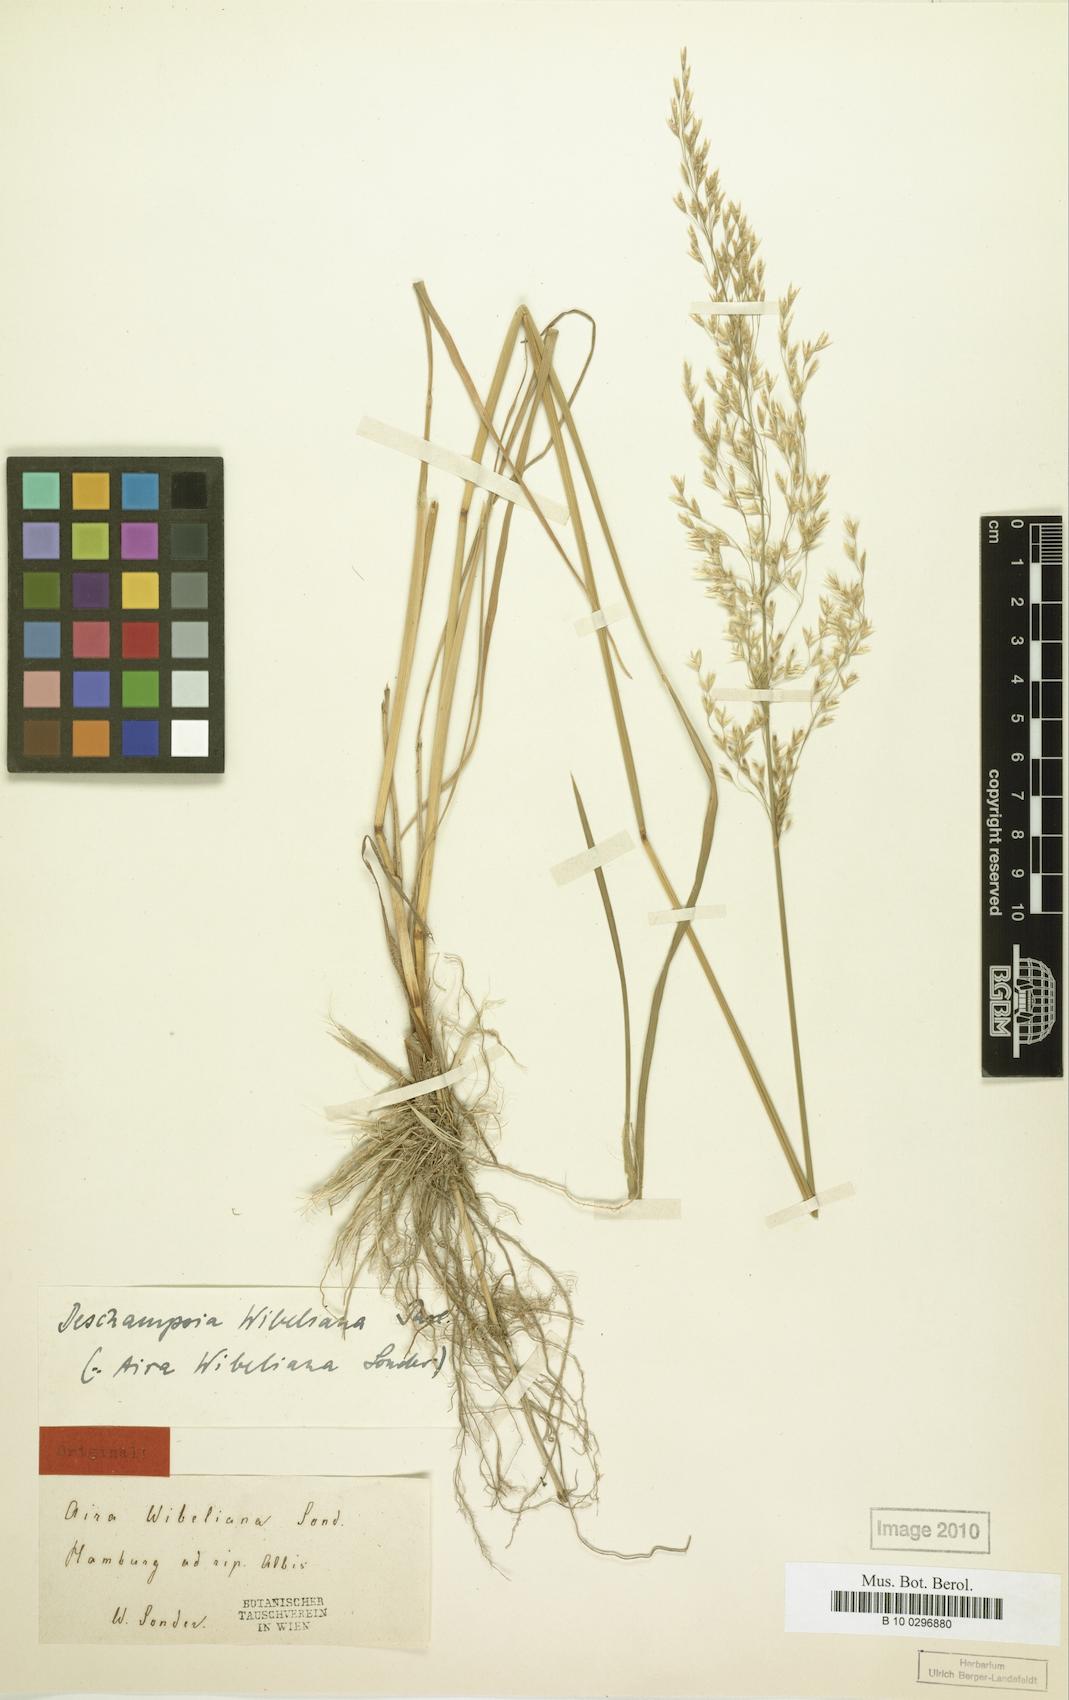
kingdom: Plantae
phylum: Tracheophyta
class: Liliopsida
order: Poales
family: Poaceae
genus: Deschampsia
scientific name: Deschampsia cespitosa
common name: Tufted hair-grass
